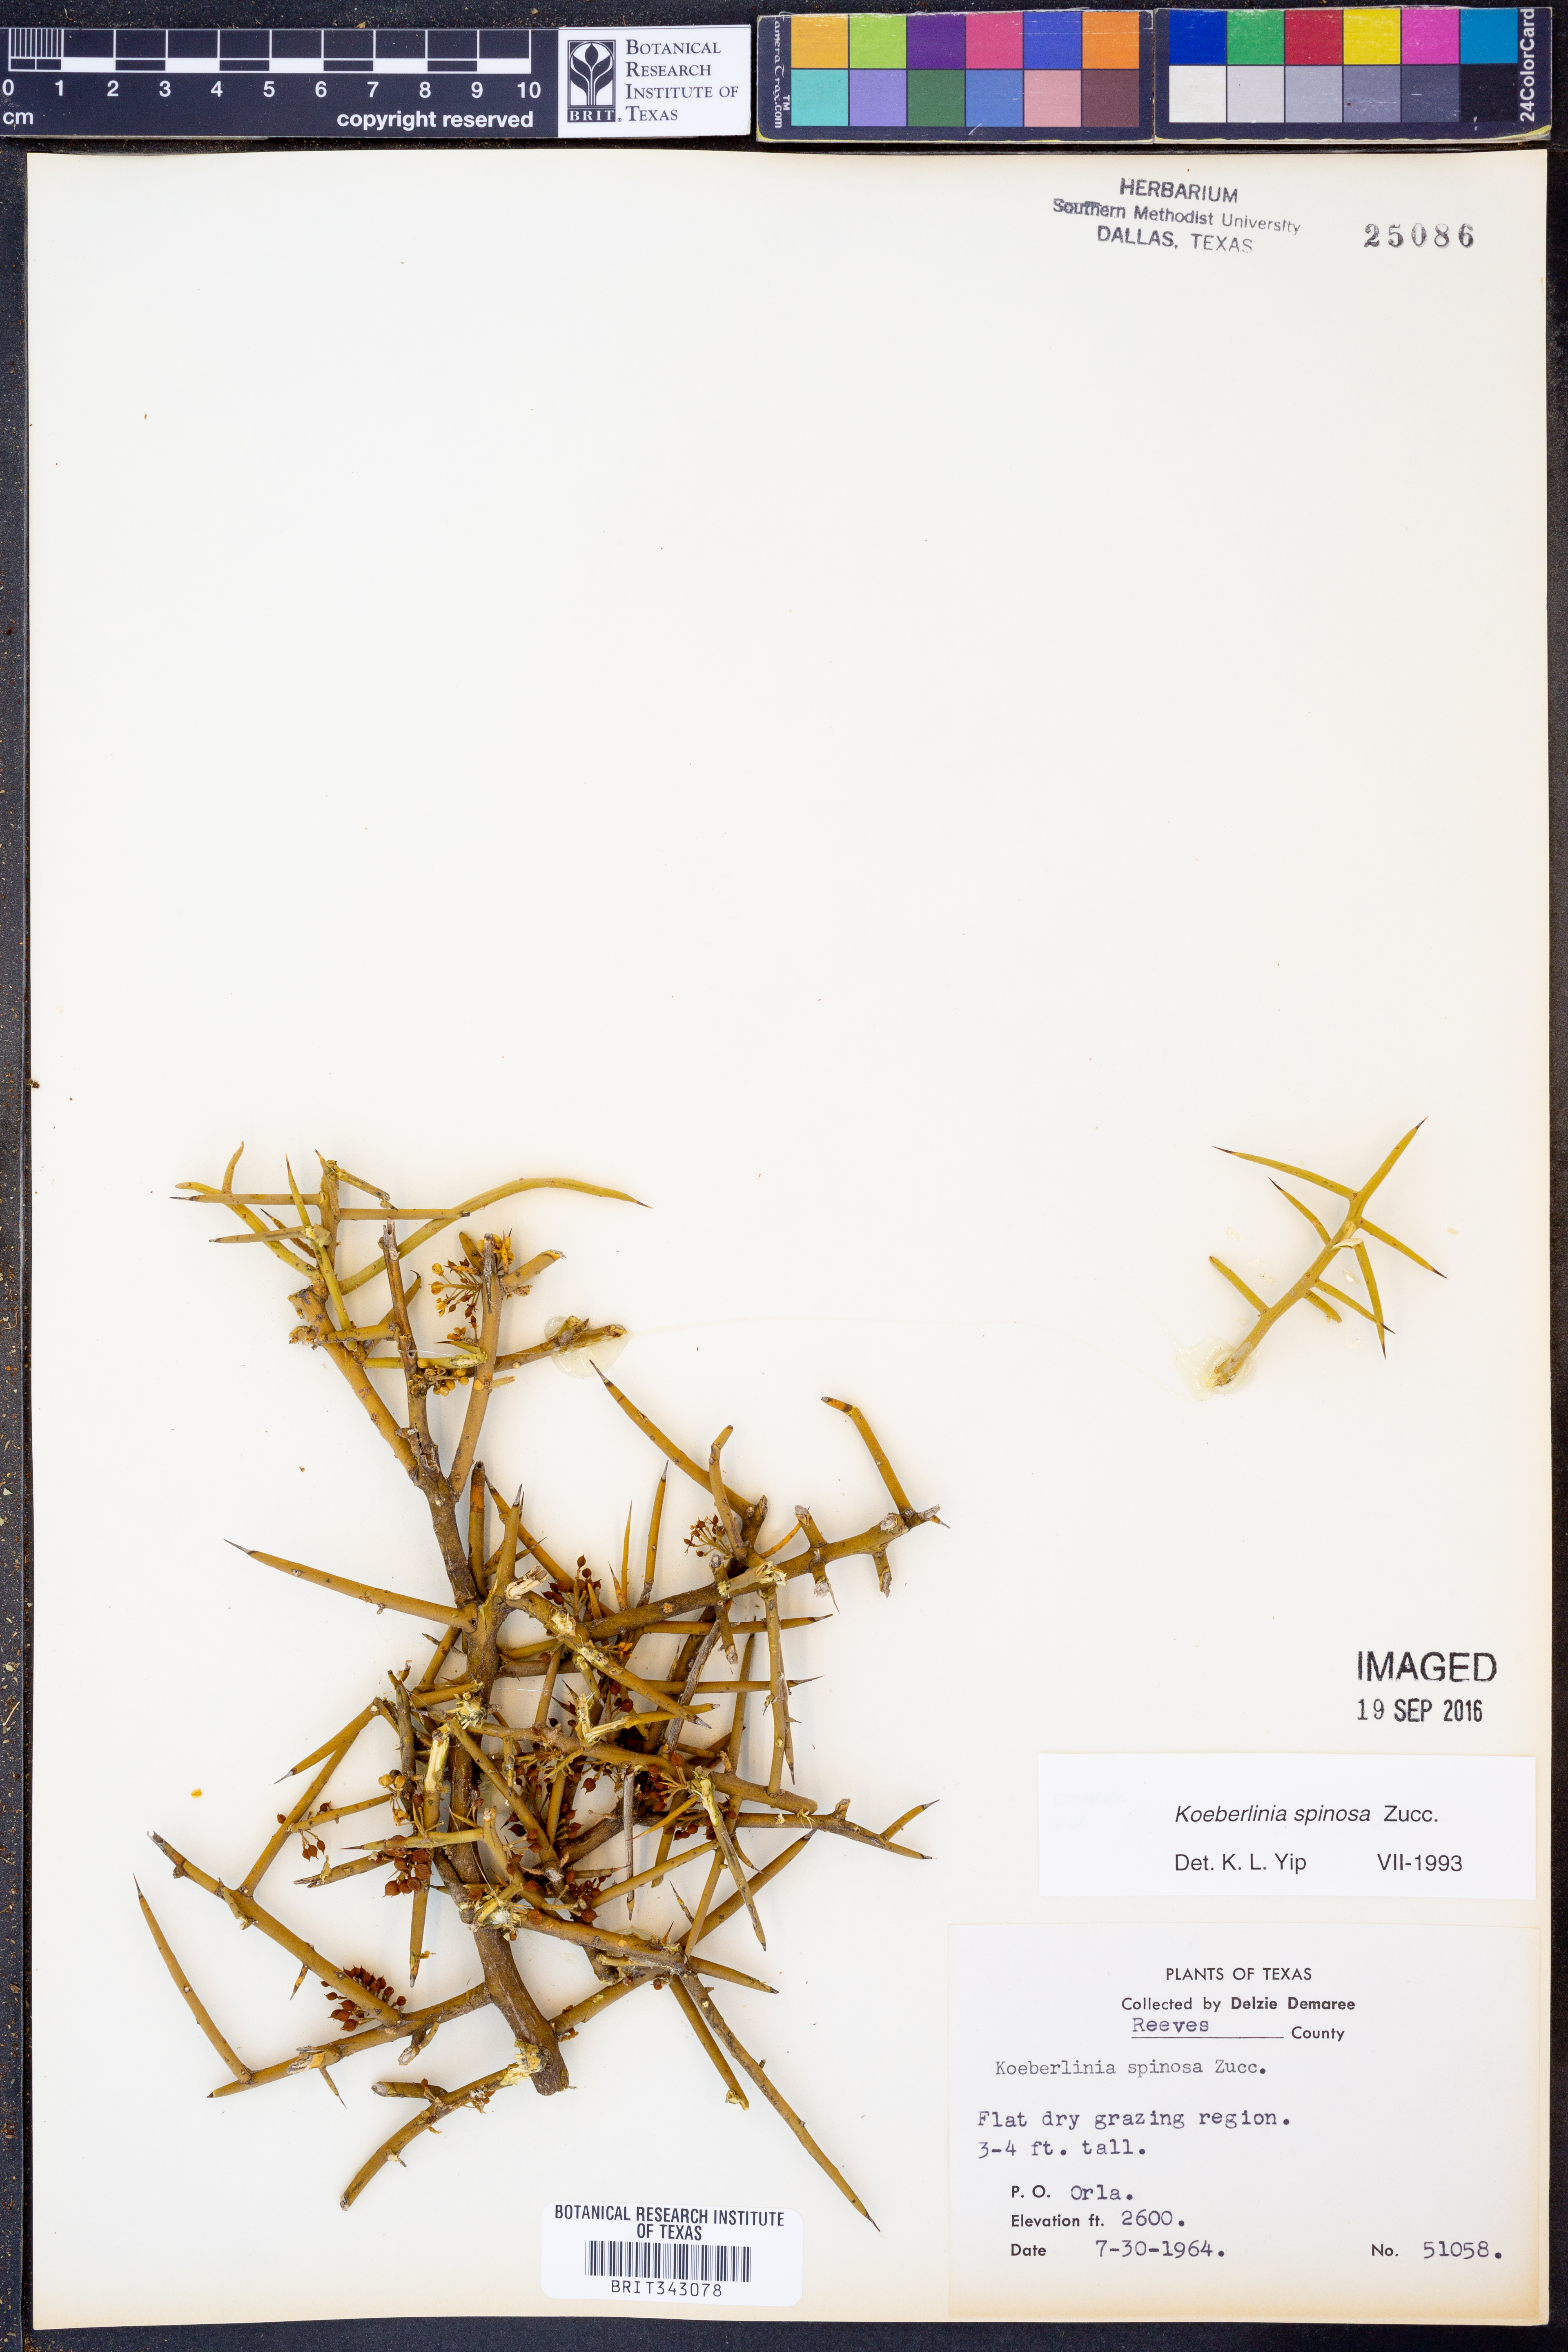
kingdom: Plantae
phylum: Tracheophyta
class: Magnoliopsida
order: Brassicales
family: Koeberliniaceae
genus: Koeberlinia
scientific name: Koeberlinia spinosa
